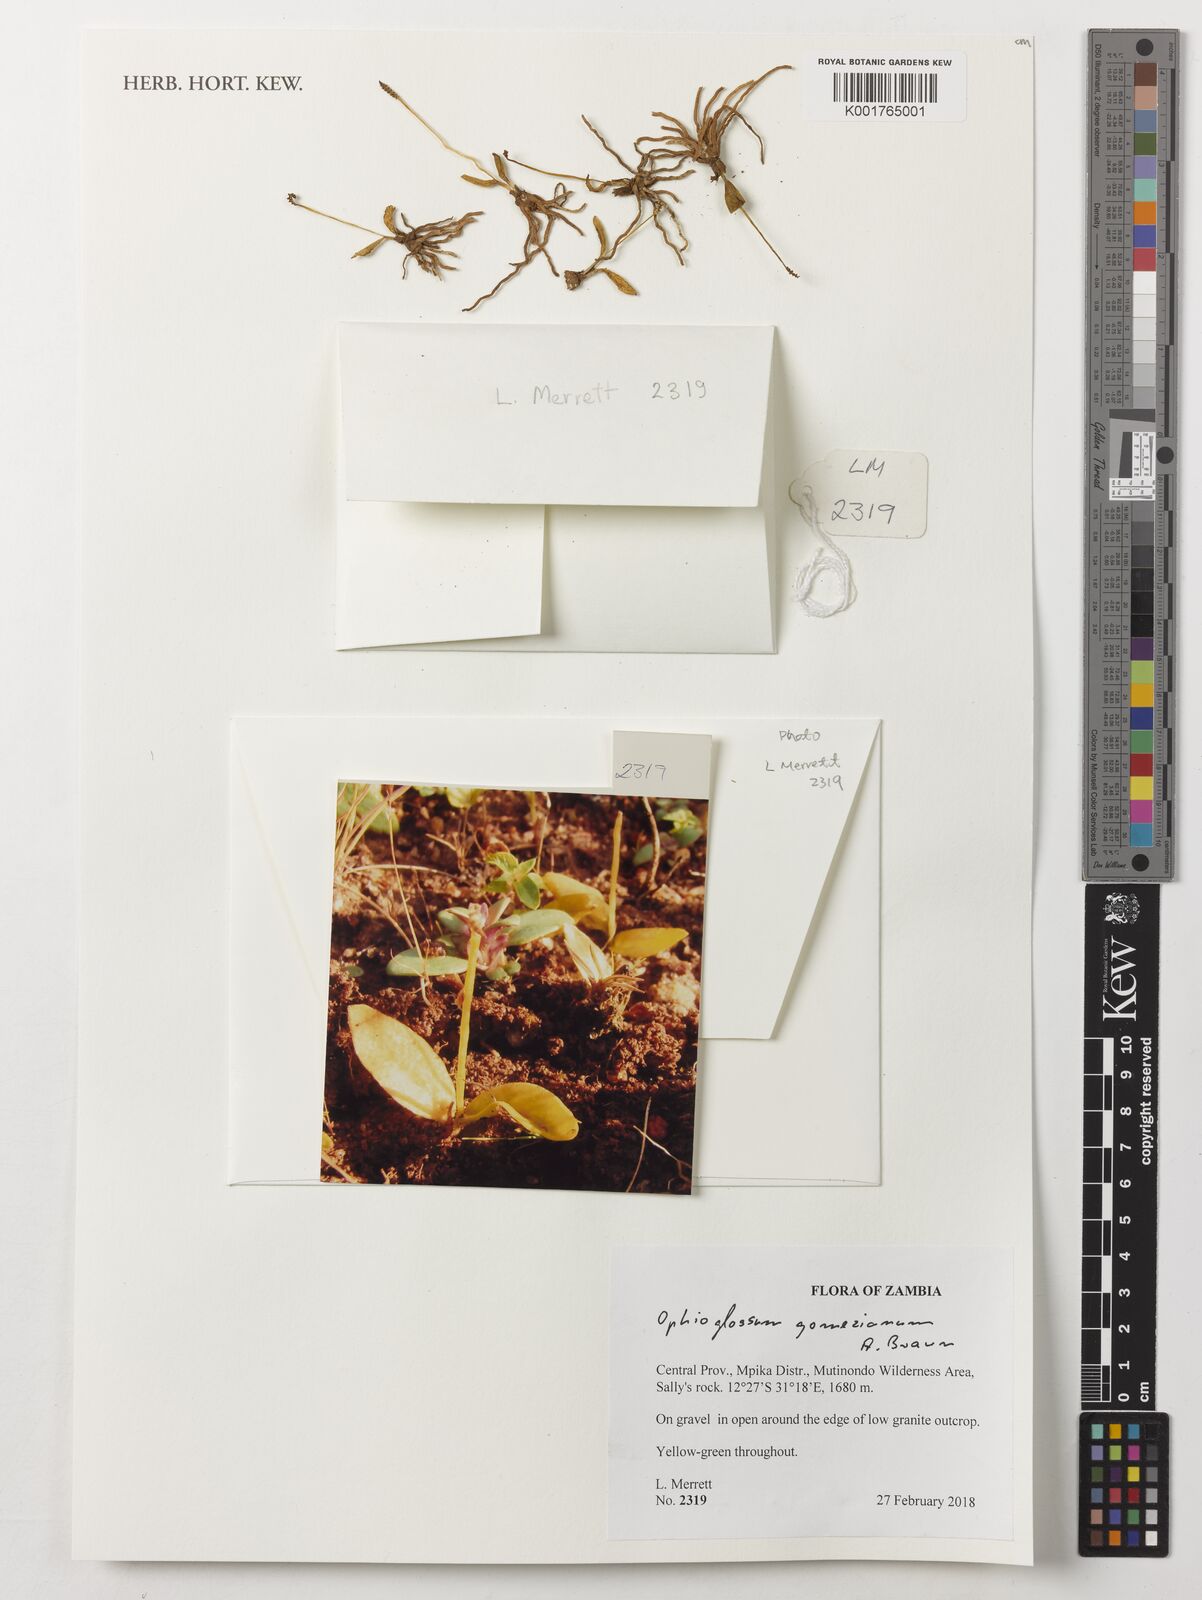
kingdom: Plantae
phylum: Tracheophyta
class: Polypodiopsida
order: Ophioglossales
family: Ophioglossaceae
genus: Ophioglossum
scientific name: Ophioglossum gomezianum
